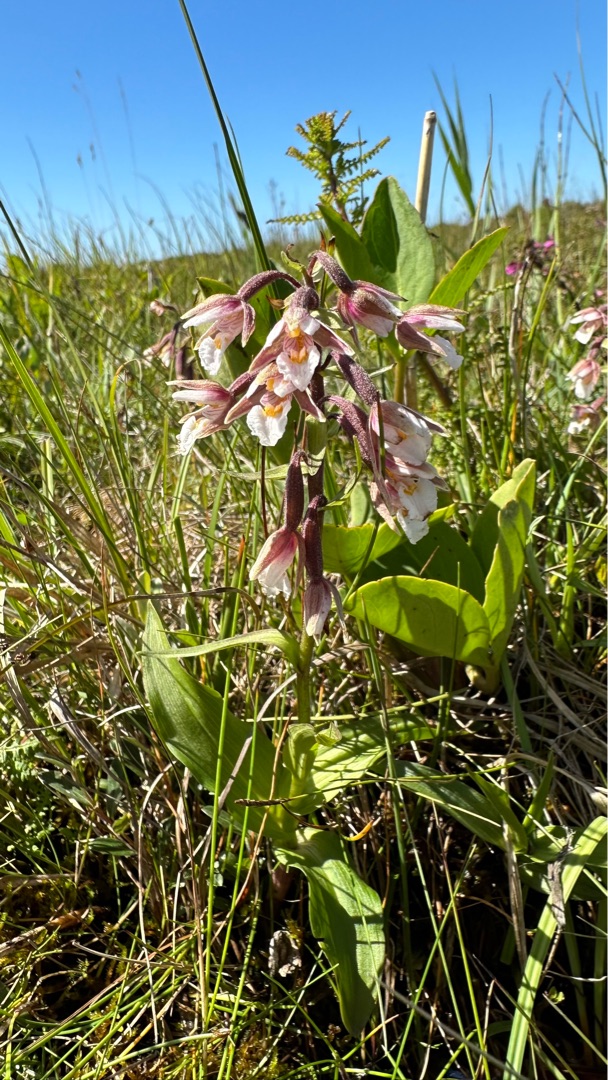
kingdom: Plantae
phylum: Tracheophyta
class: Liliopsida
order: Asparagales
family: Orchidaceae
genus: Epipactis
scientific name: Epipactis palustris
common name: Sump-hullæbe
